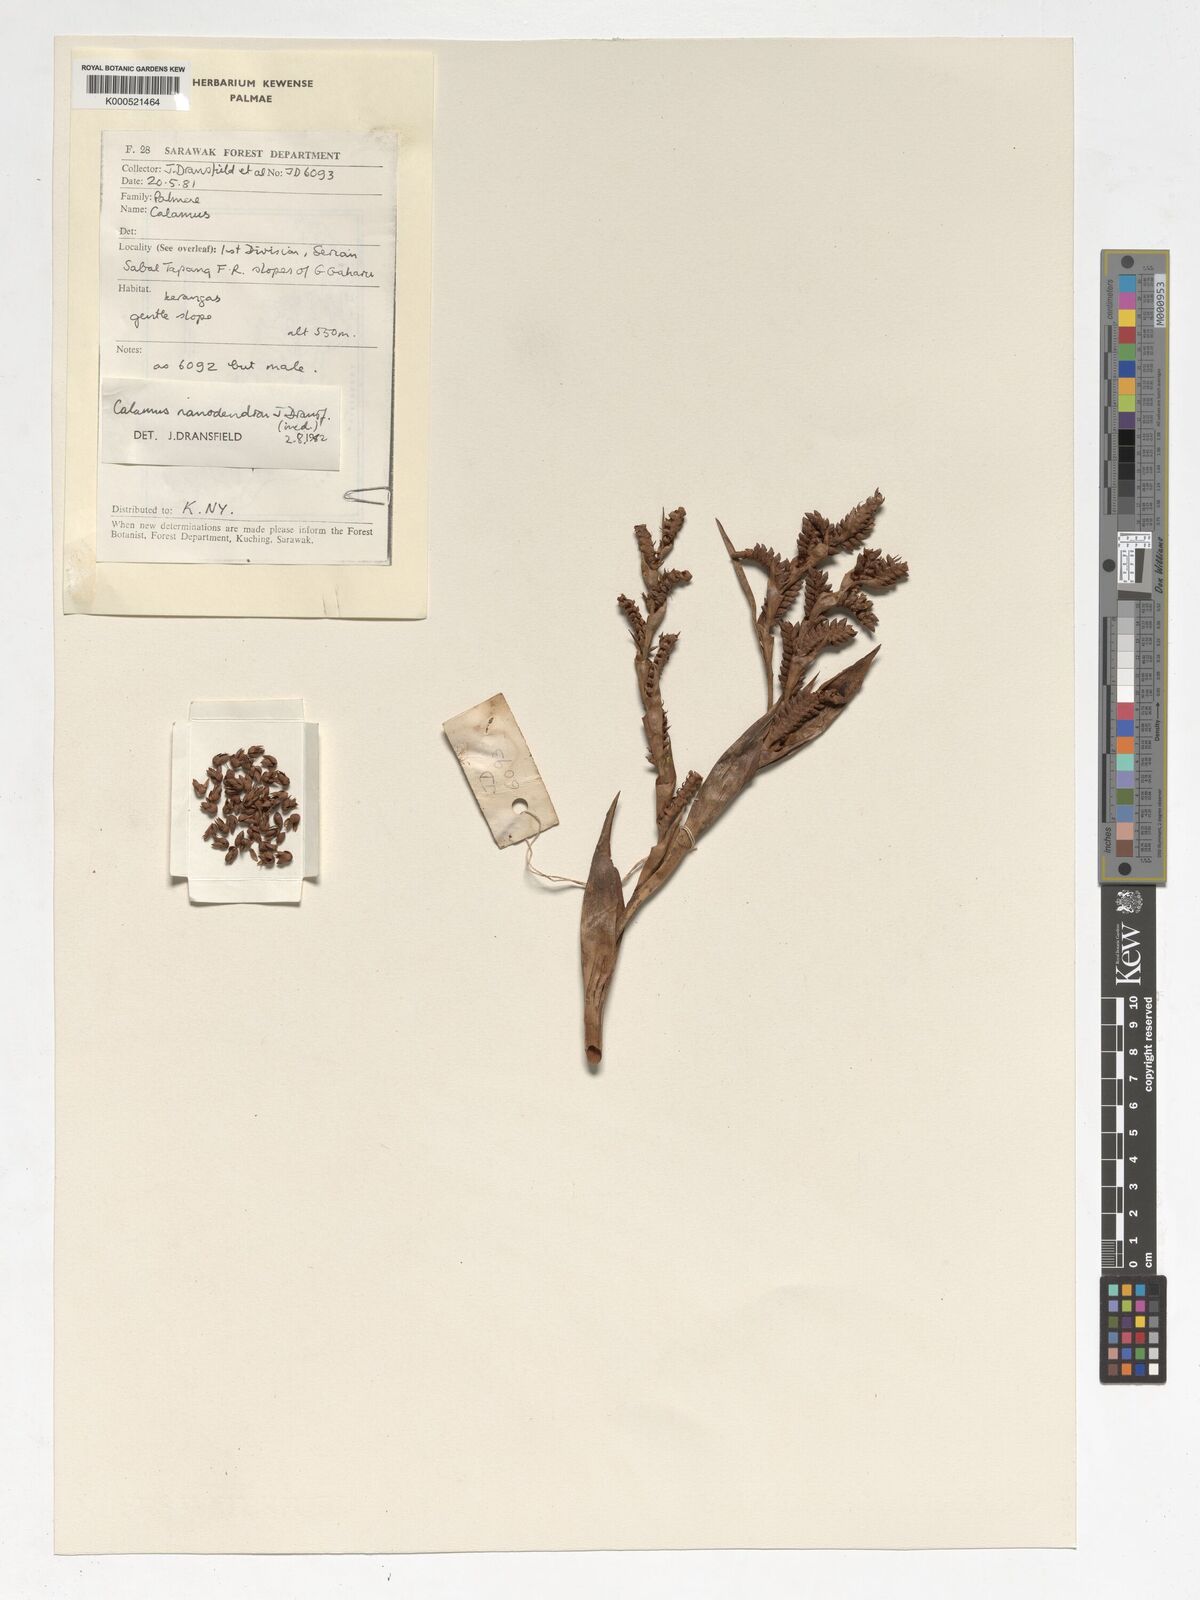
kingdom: Plantae
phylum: Tracheophyta
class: Liliopsida
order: Arecales
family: Arecaceae
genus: Calamus
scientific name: Calamus nanodendron
